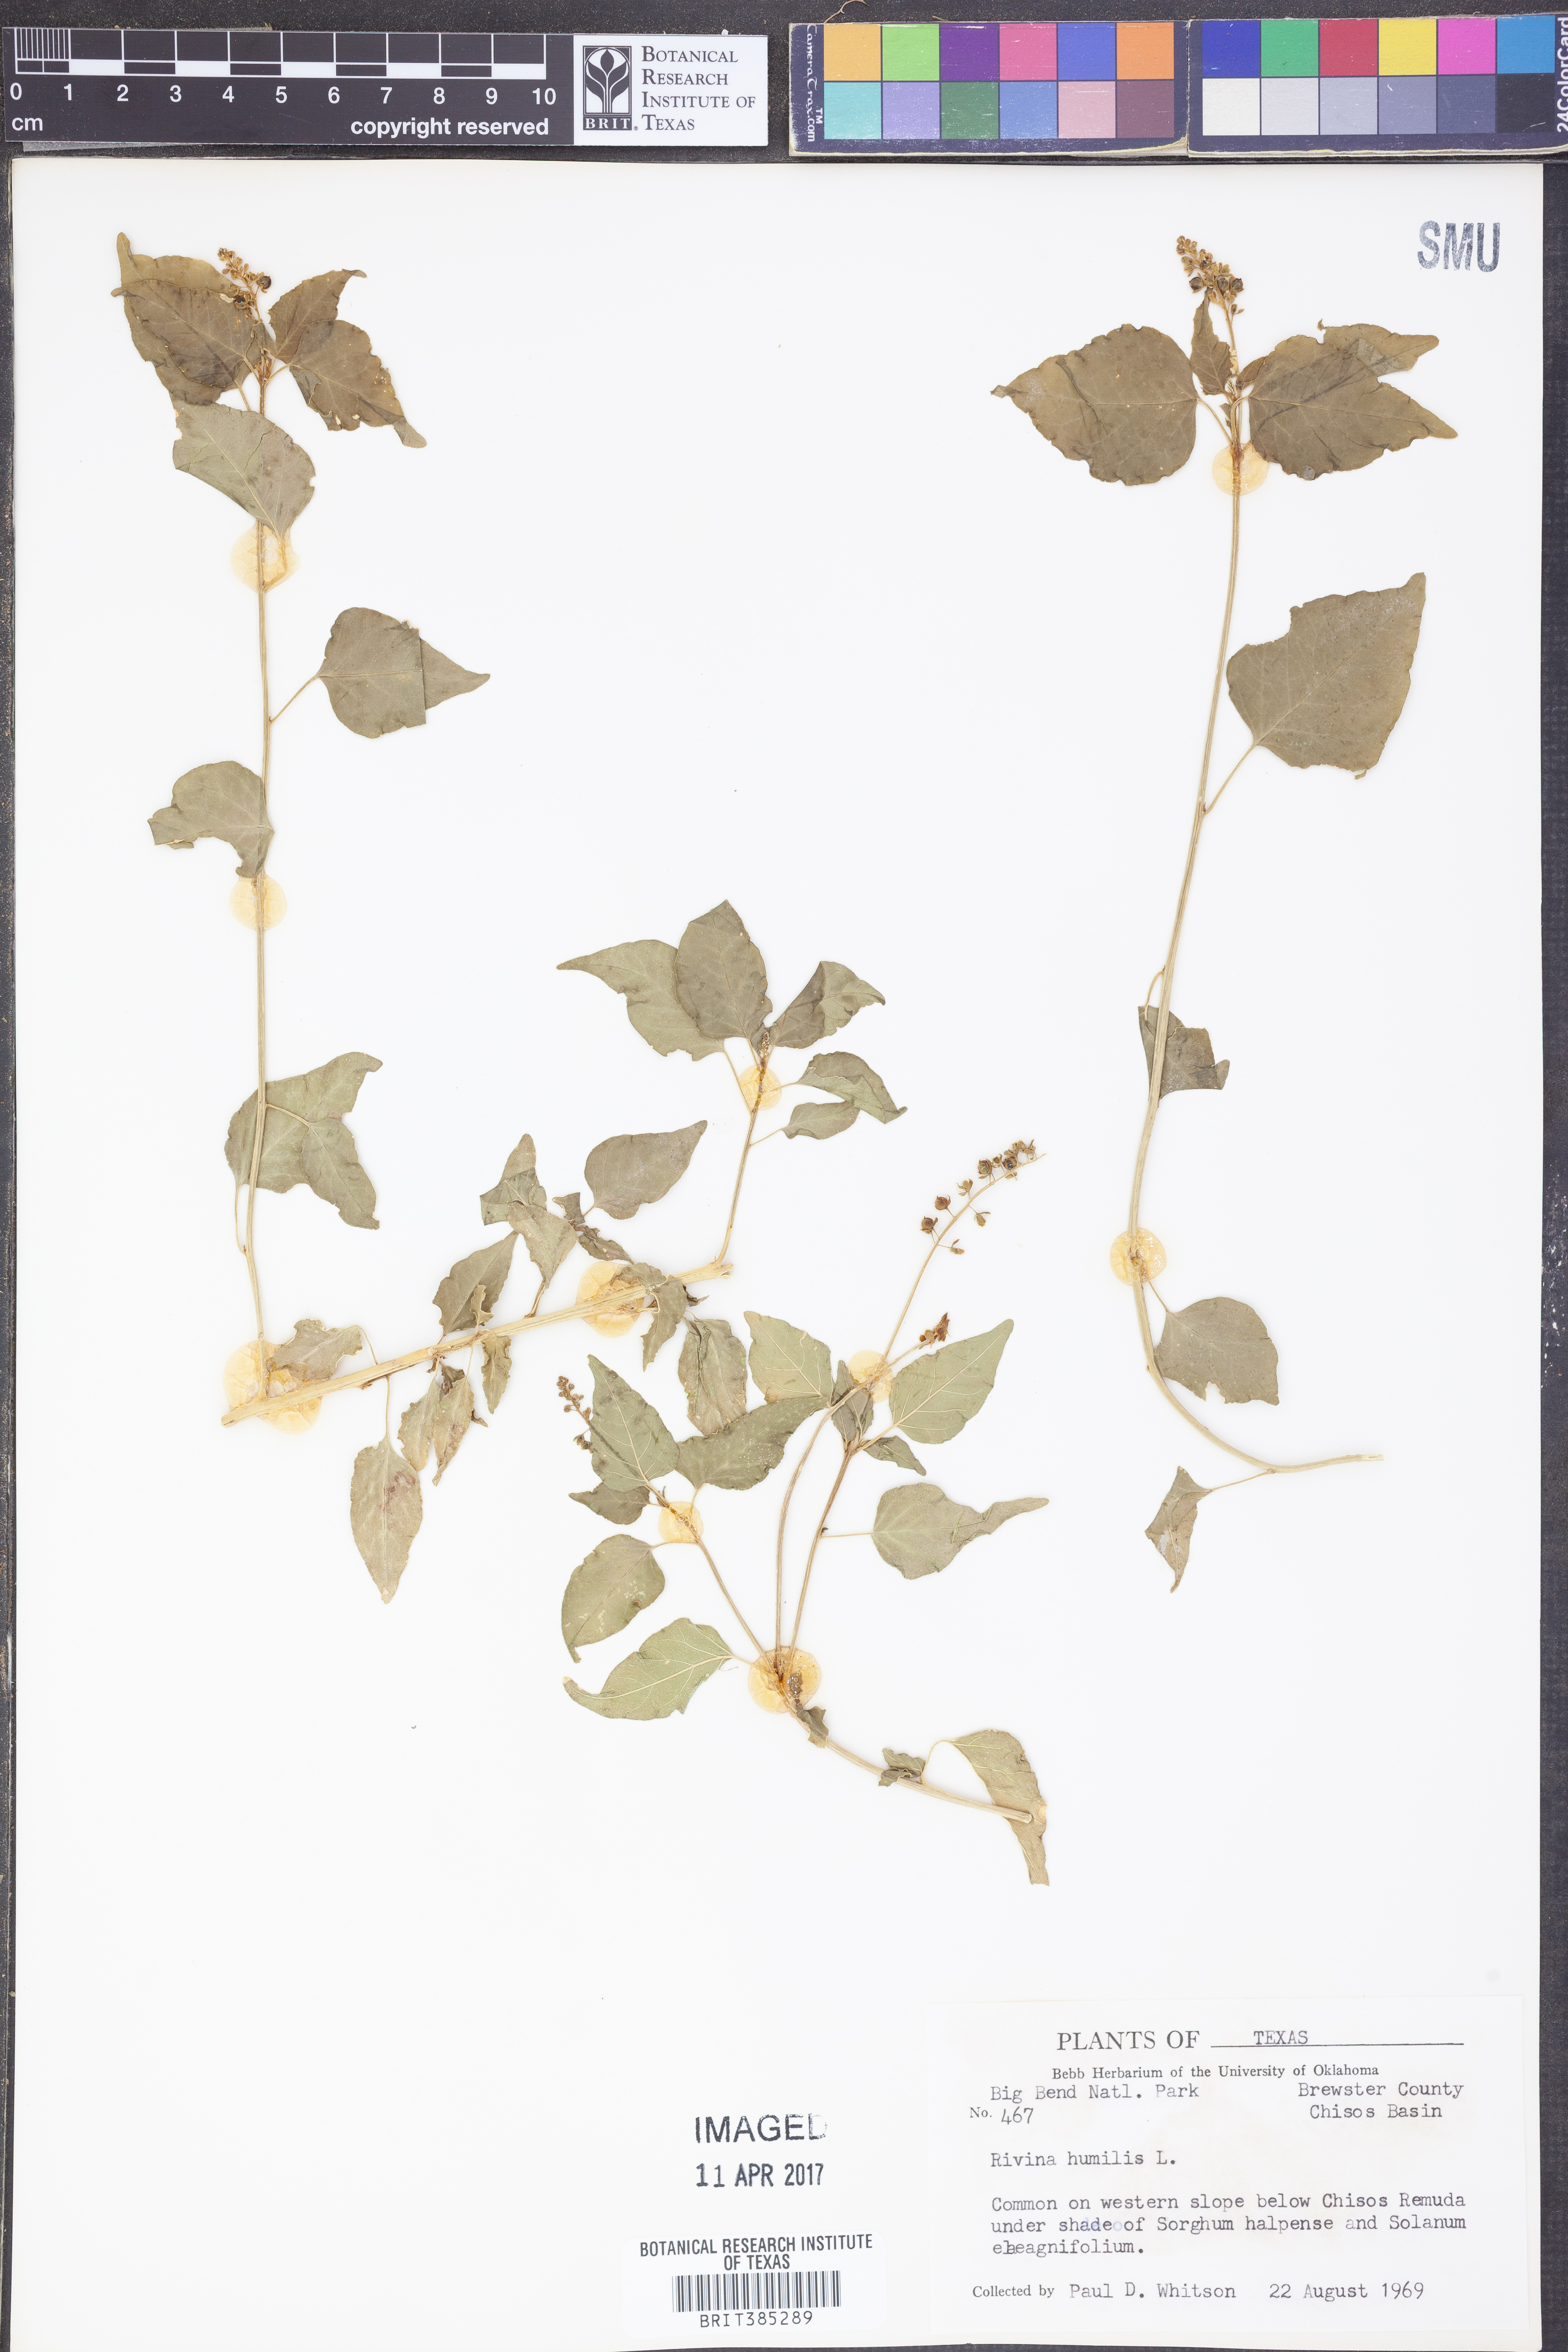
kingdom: Plantae
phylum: Tracheophyta
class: Magnoliopsida
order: Caryophyllales
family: Phytolaccaceae
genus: Rivina
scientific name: Rivina humilis
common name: Rougeplant
